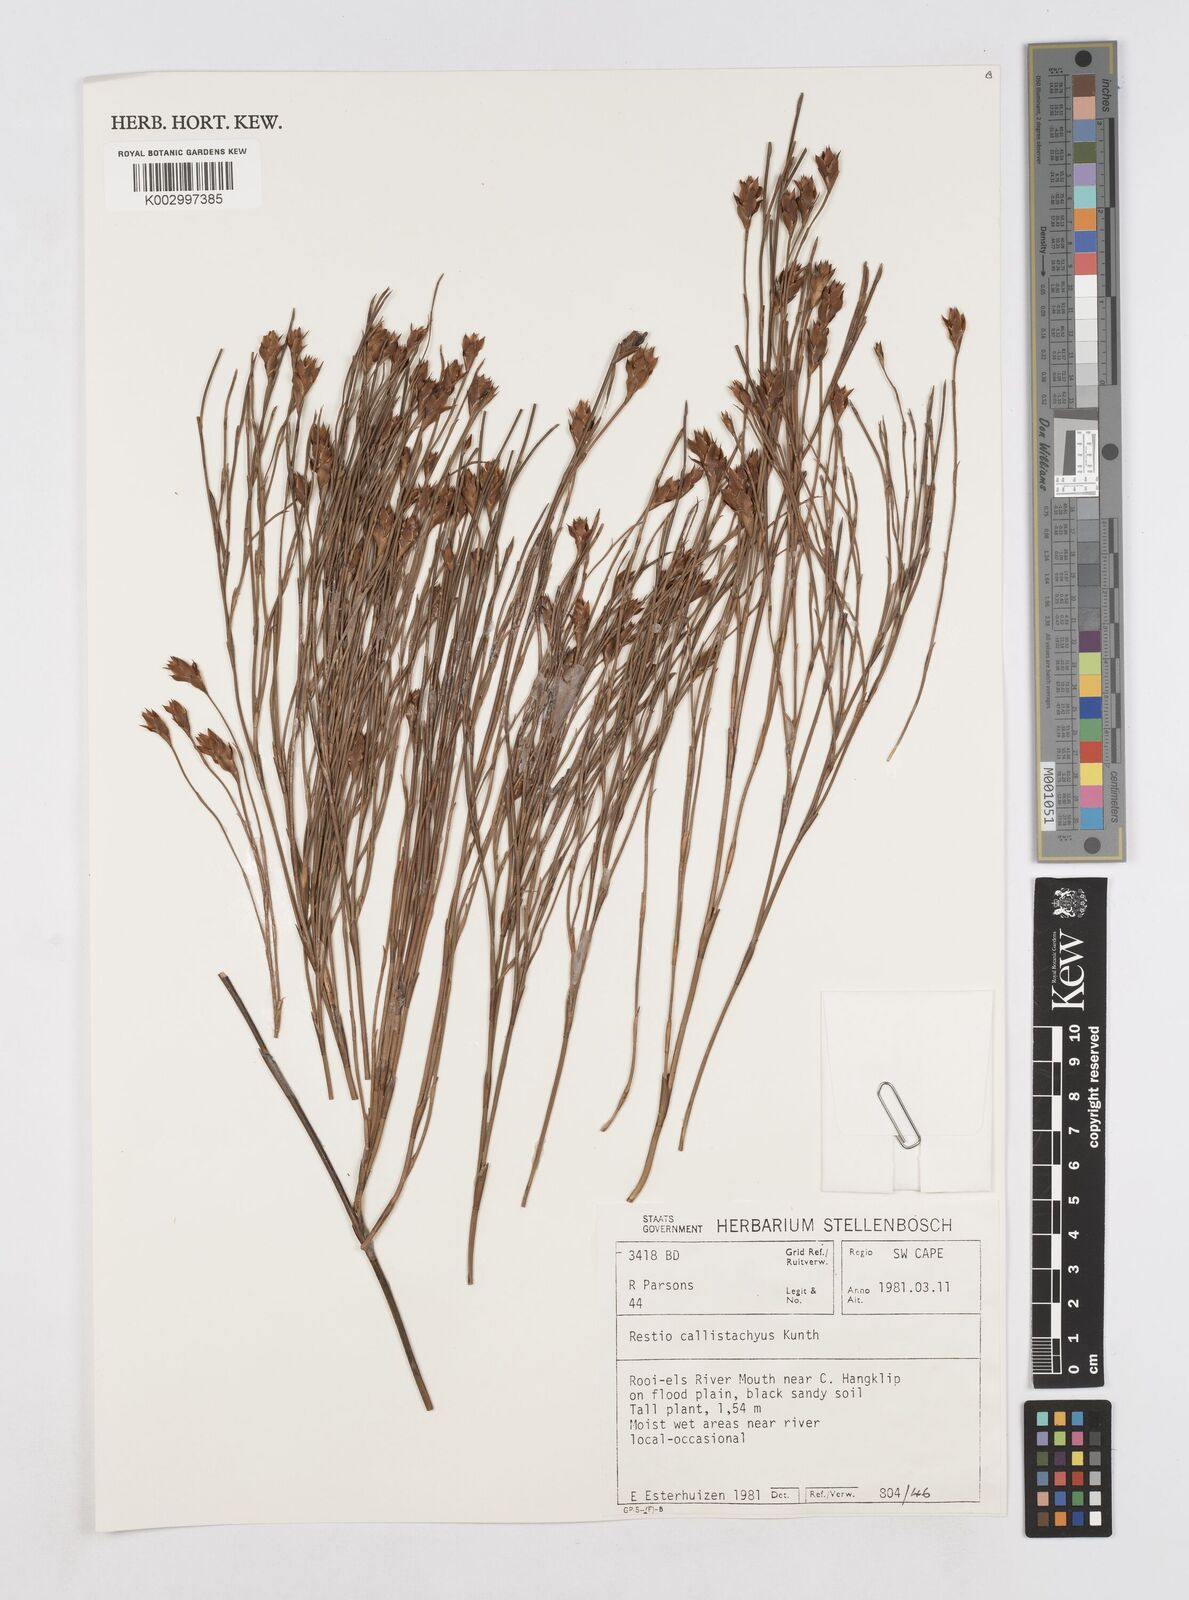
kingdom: Plantae
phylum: Tracheophyta
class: Liliopsida
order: Poales
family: Restionaceae
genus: Platycaulos
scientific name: Platycaulos callistachyus
